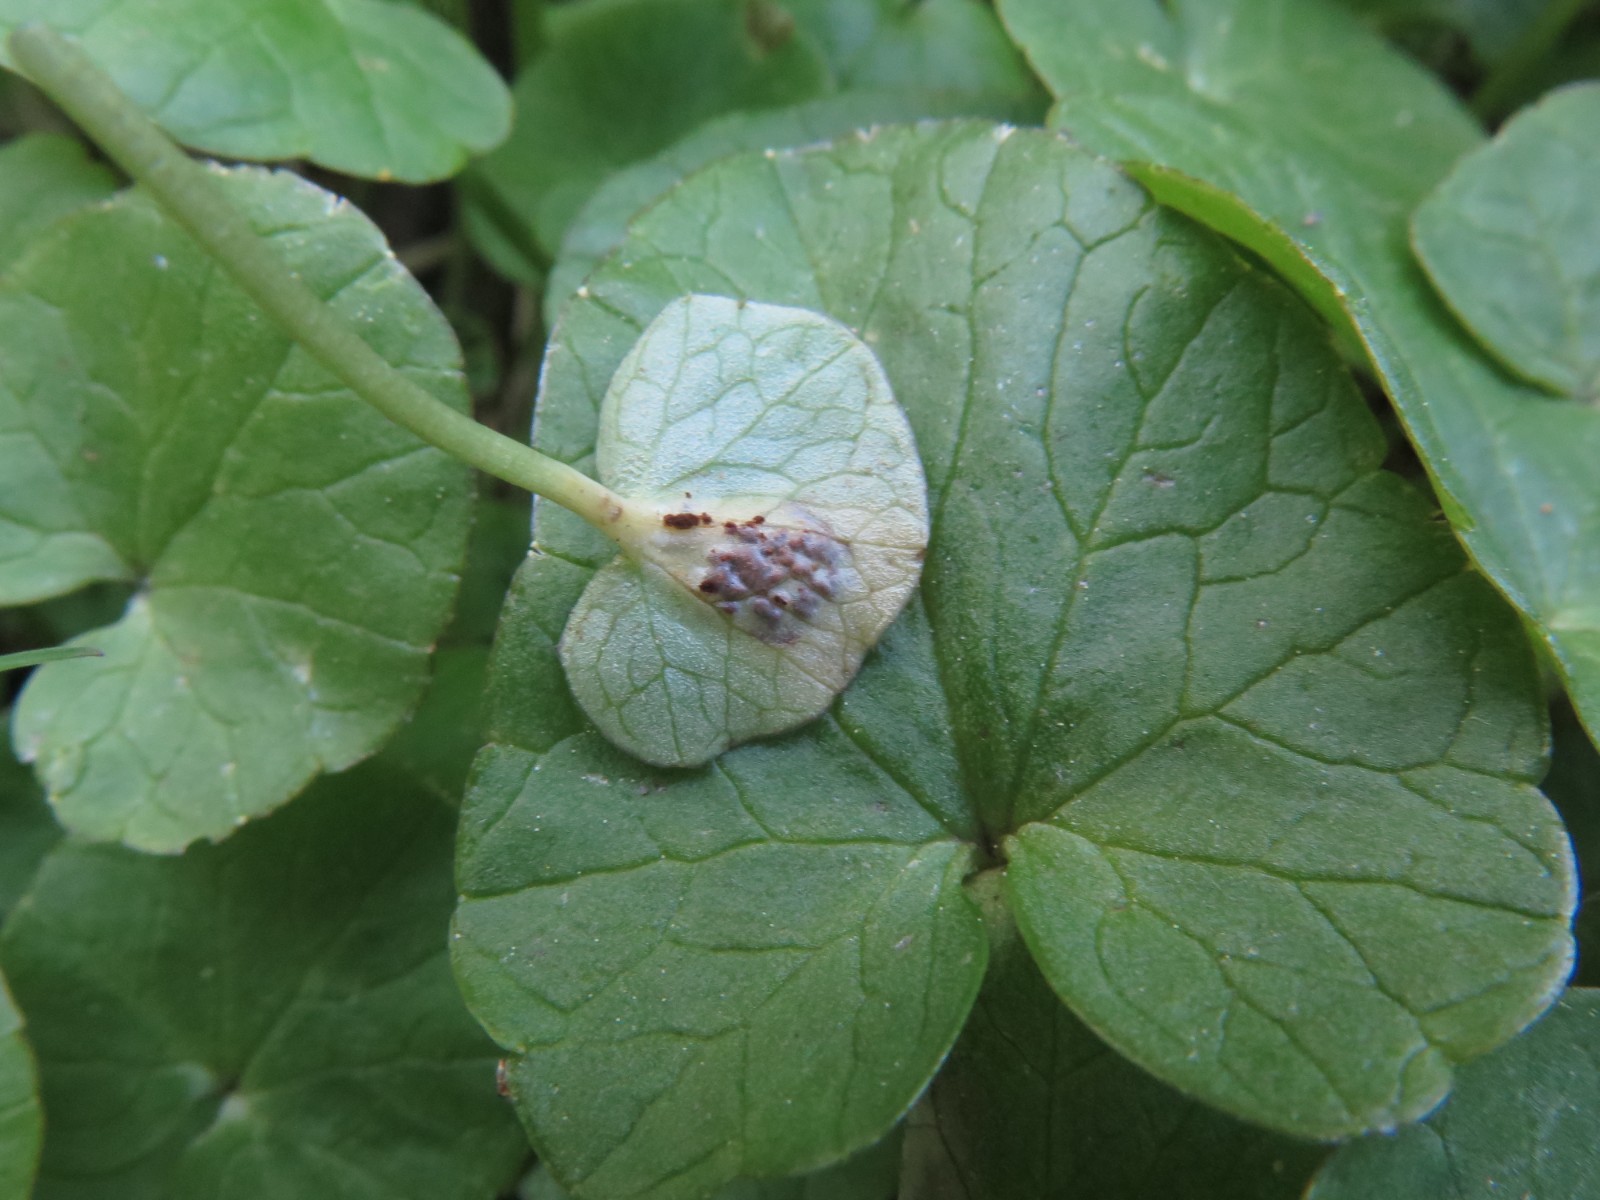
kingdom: Fungi
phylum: Basidiomycota
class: Pucciniomycetes
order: Pucciniales
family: Pucciniaceae
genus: Uromyces
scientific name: Uromyces ficariae
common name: vorterod-encellerust
